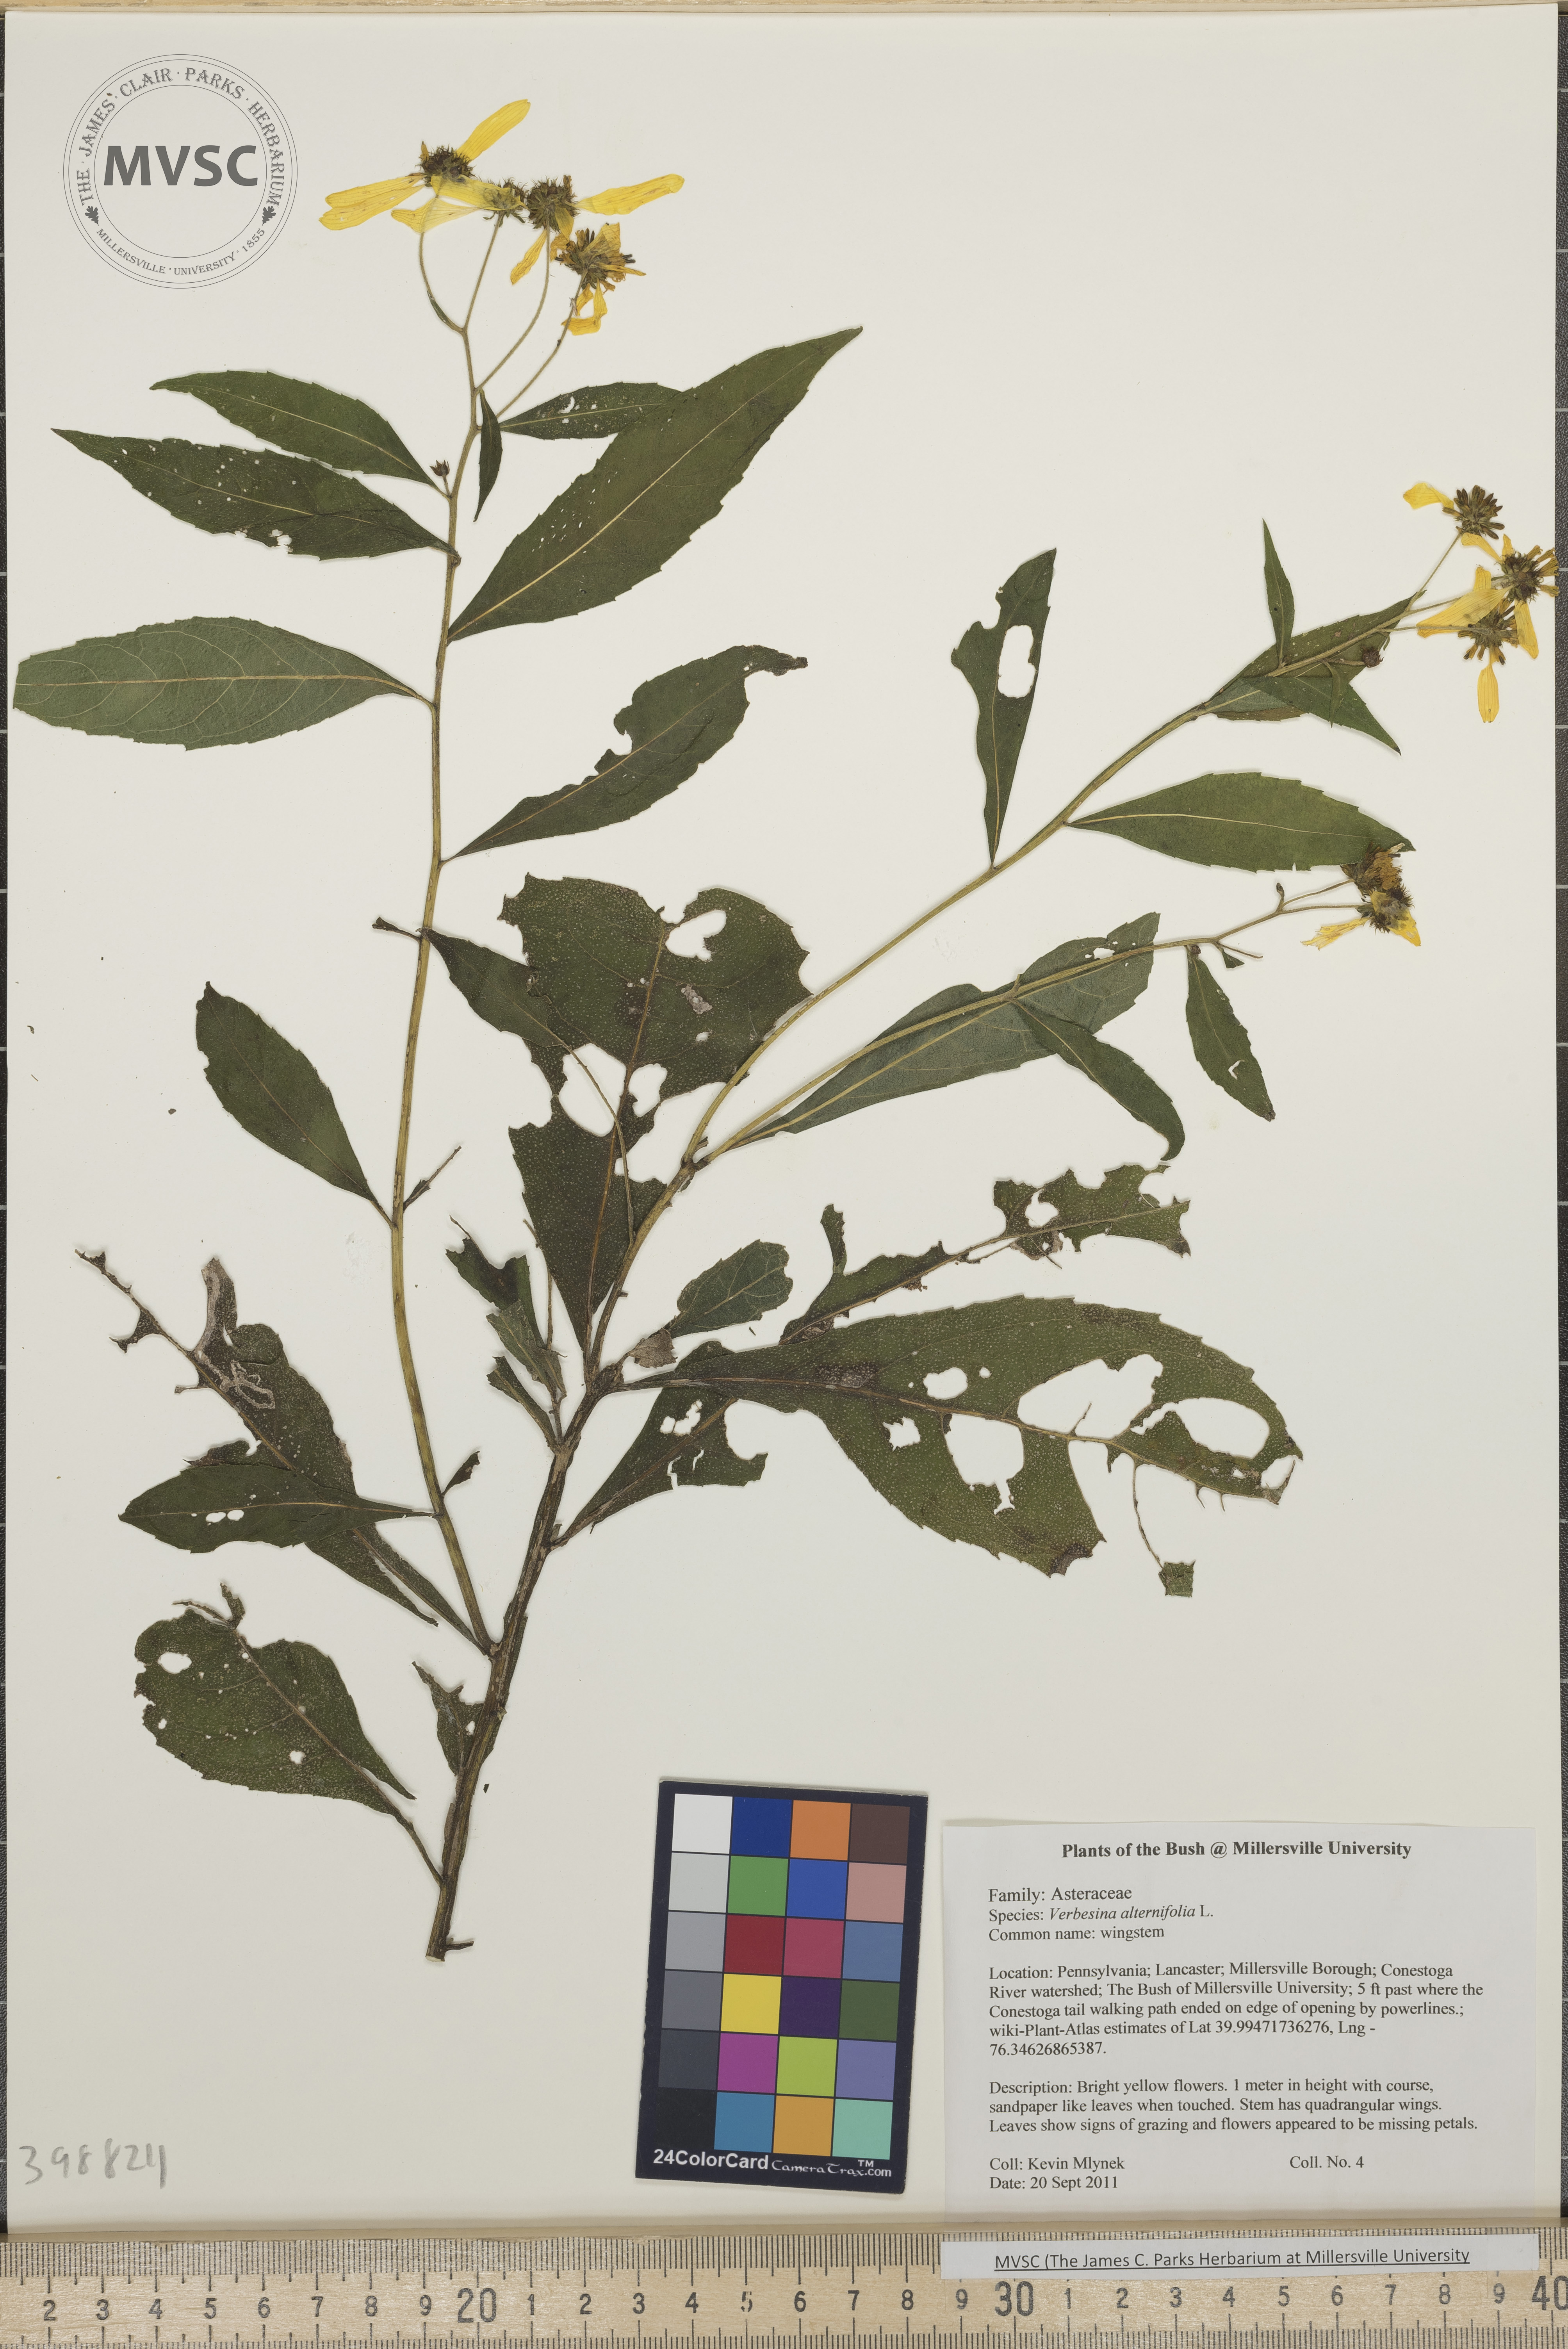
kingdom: Plantae
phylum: Tracheophyta
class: Magnoliopsida
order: Asterales
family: Asteraceae
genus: Verbesina
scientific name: Verbesina alternifolia
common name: Wingstem
